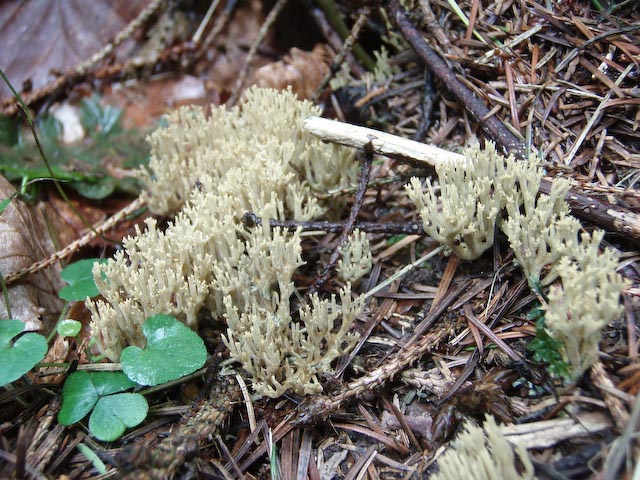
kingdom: Fungi
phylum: Basidiomycota
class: Agaricomycetes
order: Gomphales
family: Gomphaceae
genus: Phaeoclavulina
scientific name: Phaeoclavulina abietina
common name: gulgrøn koralsvamp
